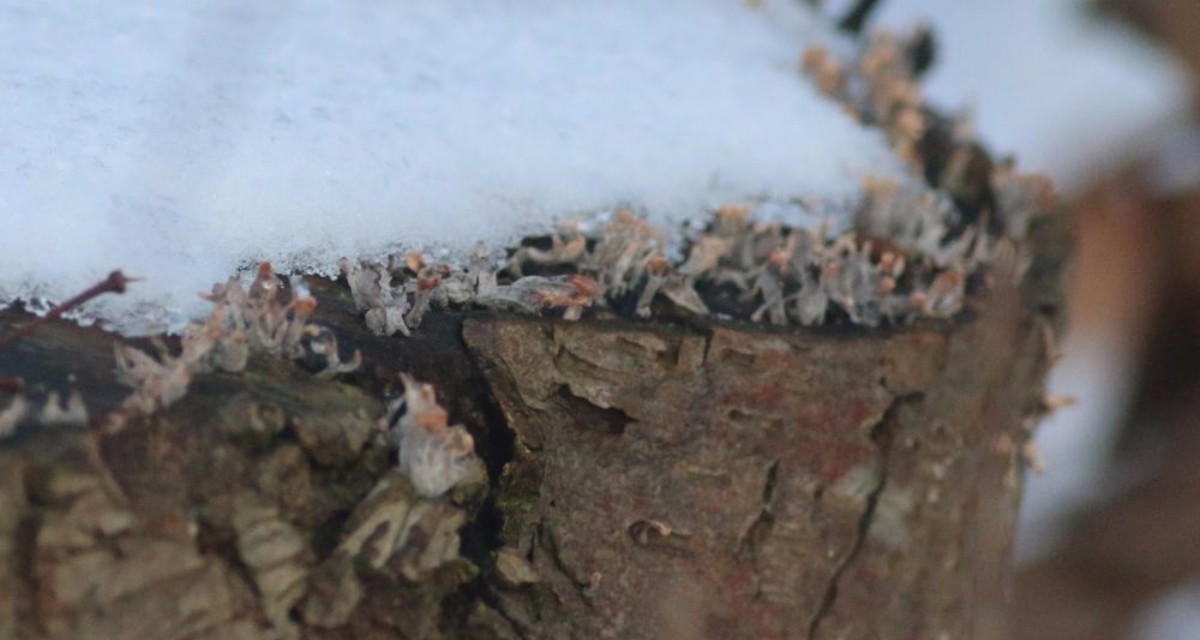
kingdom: Fungi
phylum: Ascomycota
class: Sordariomycetes
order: Xylariales
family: Xylariaceae
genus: Xylaria
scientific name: Xylaria hypoxylon
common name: grenet stødsvamp
